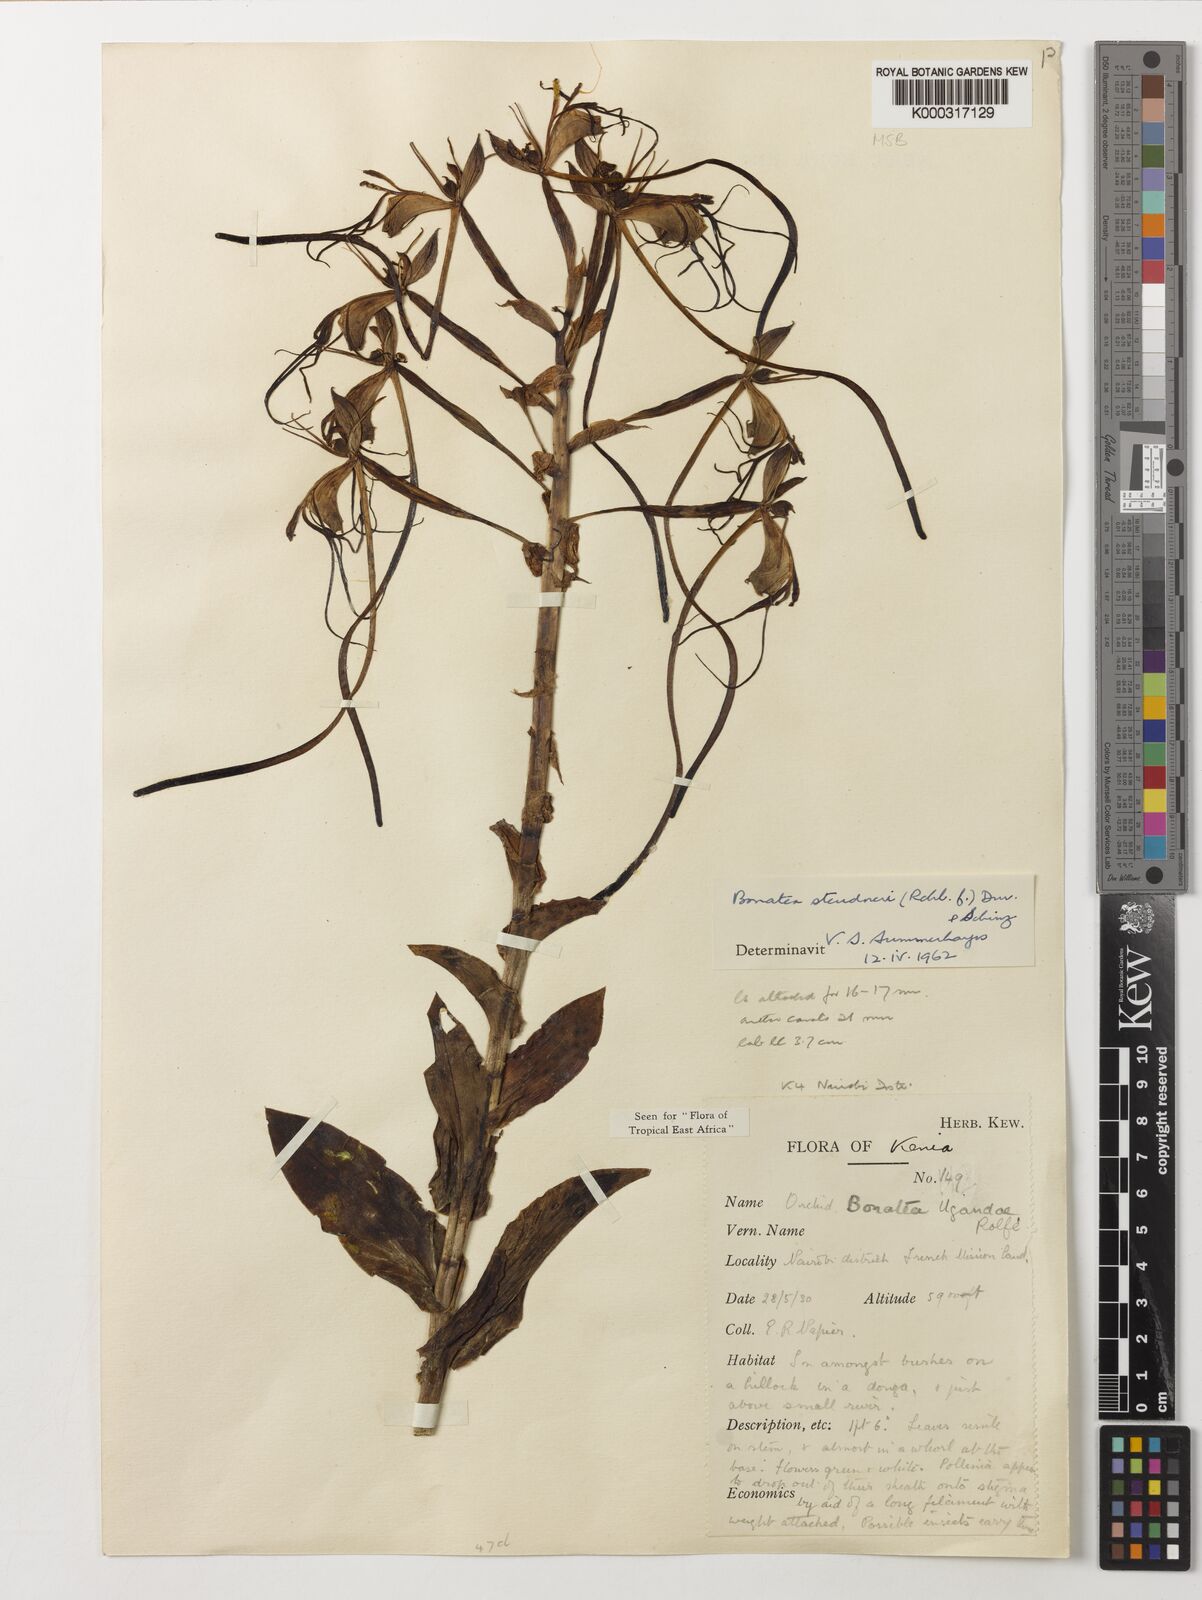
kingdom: Plantae
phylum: Tracheophyta
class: Liliopsida
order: Asparagales
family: Orchidaceae
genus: Bonatea
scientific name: Bonatea steudneri
